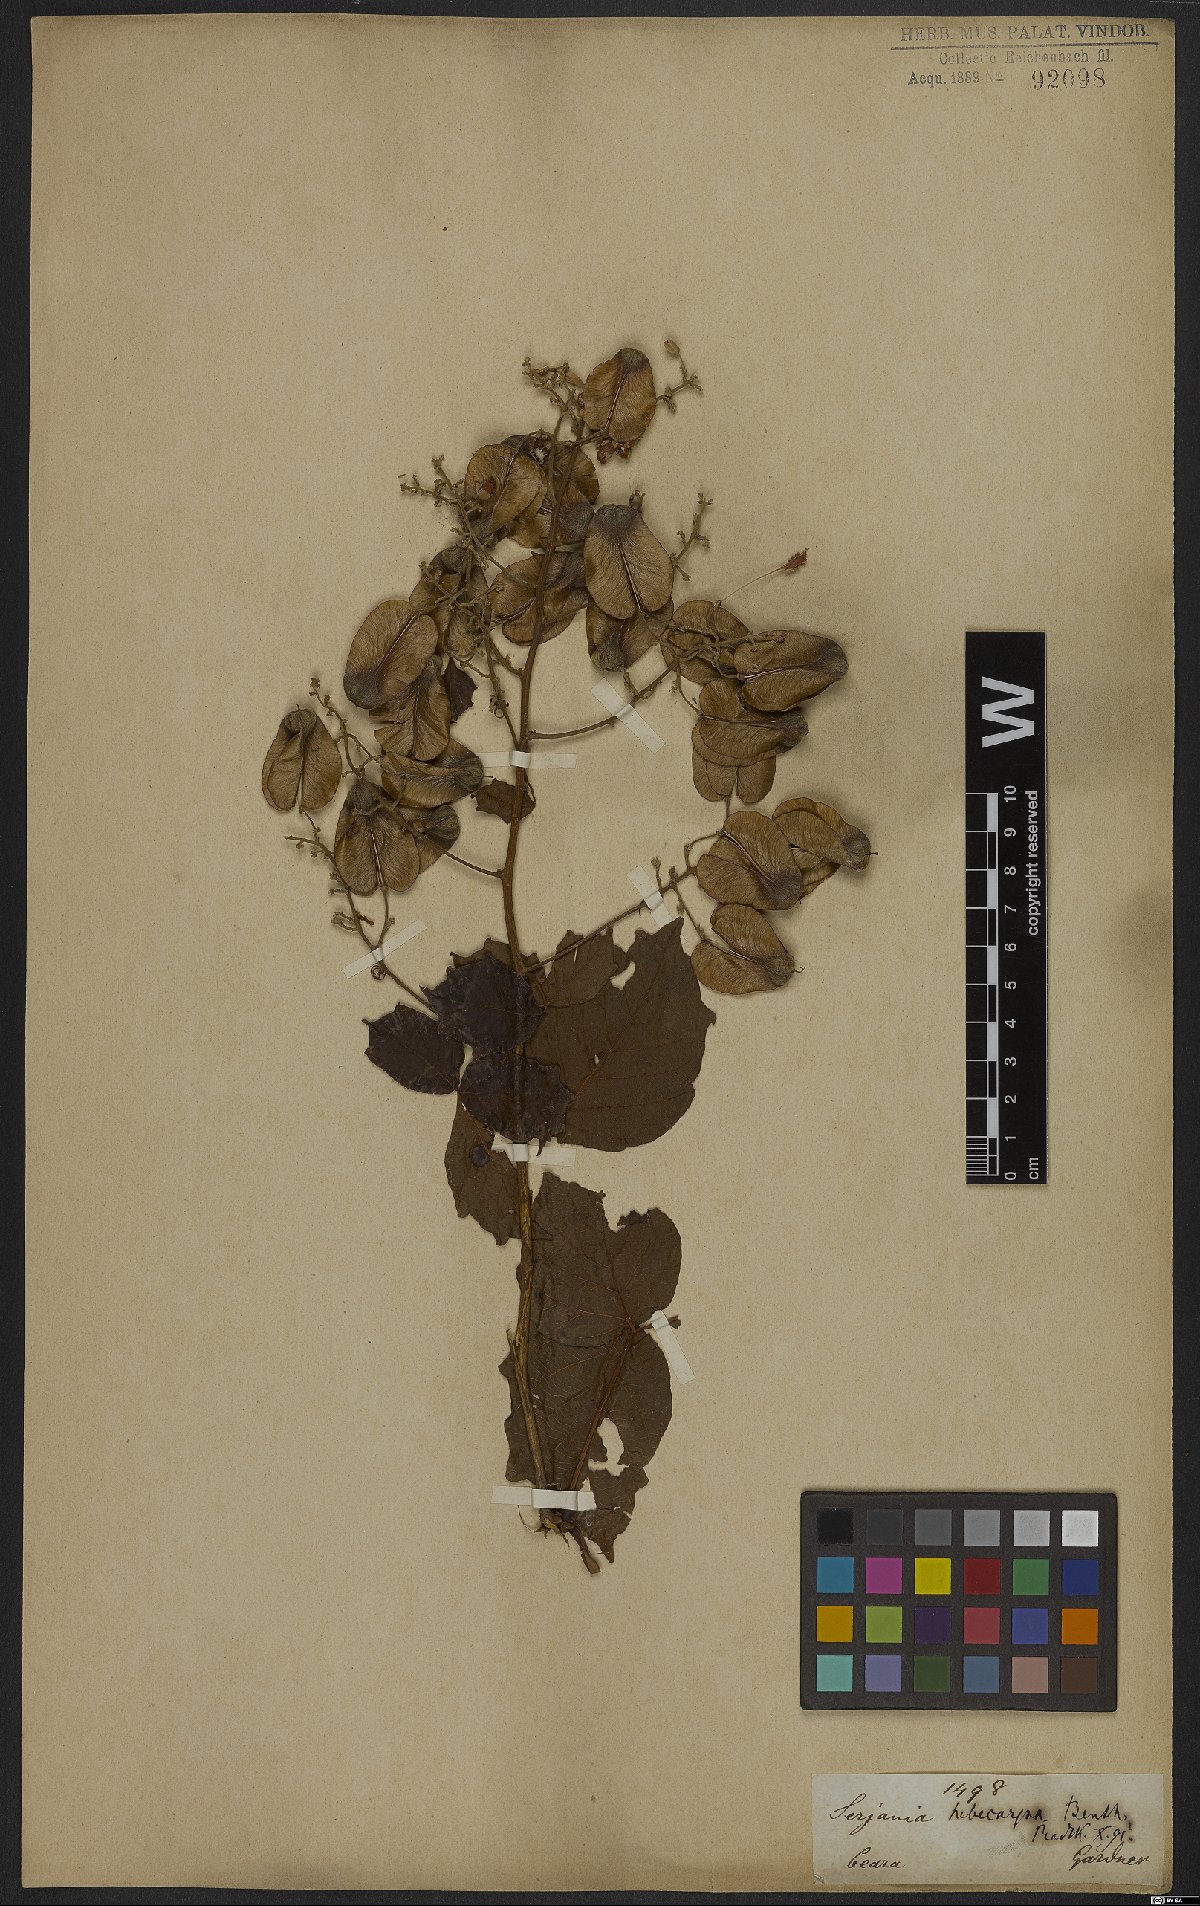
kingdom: Plantae
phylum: Tracheophyta
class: Magnoliopsida
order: Sapindales
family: Sapindaceae
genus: Serjania
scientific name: Serjania hebecarpa
